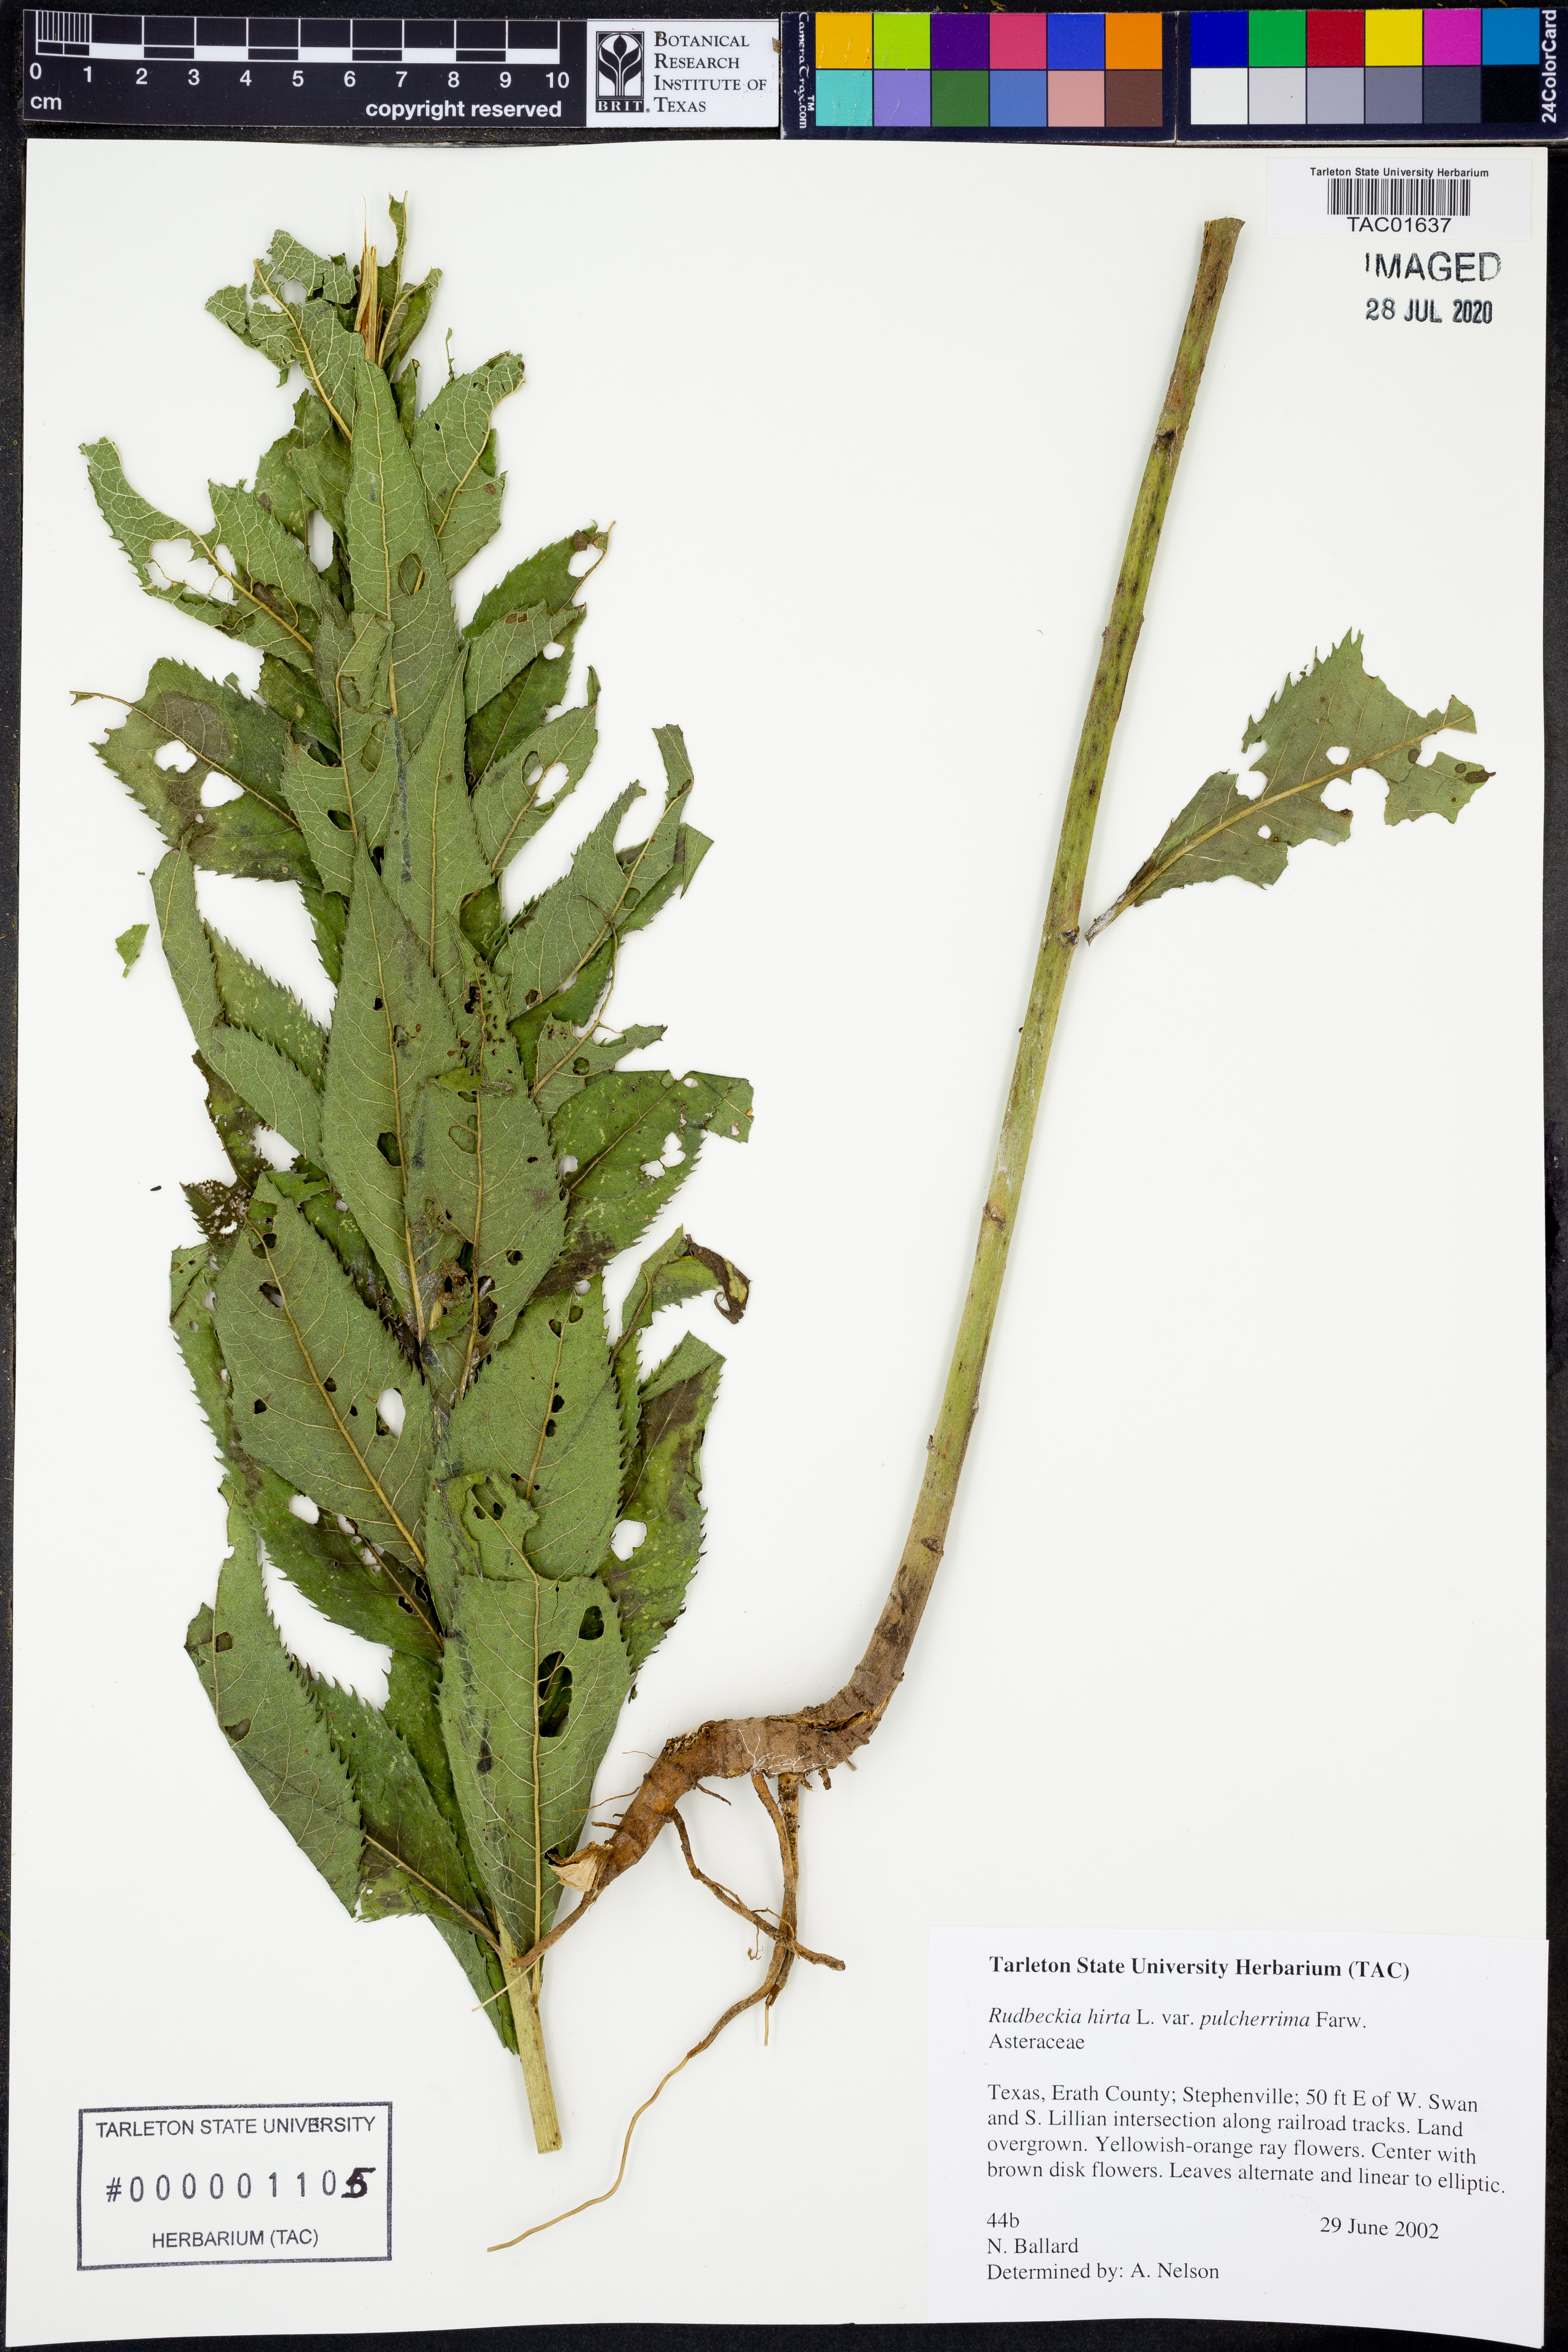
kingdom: Plantae
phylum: Tracheophyta
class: Magnoliopsida
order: Asterales
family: Asteraceae
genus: Rudbeckia
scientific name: Rudbeckia hirta
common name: Black-eyed-susan
